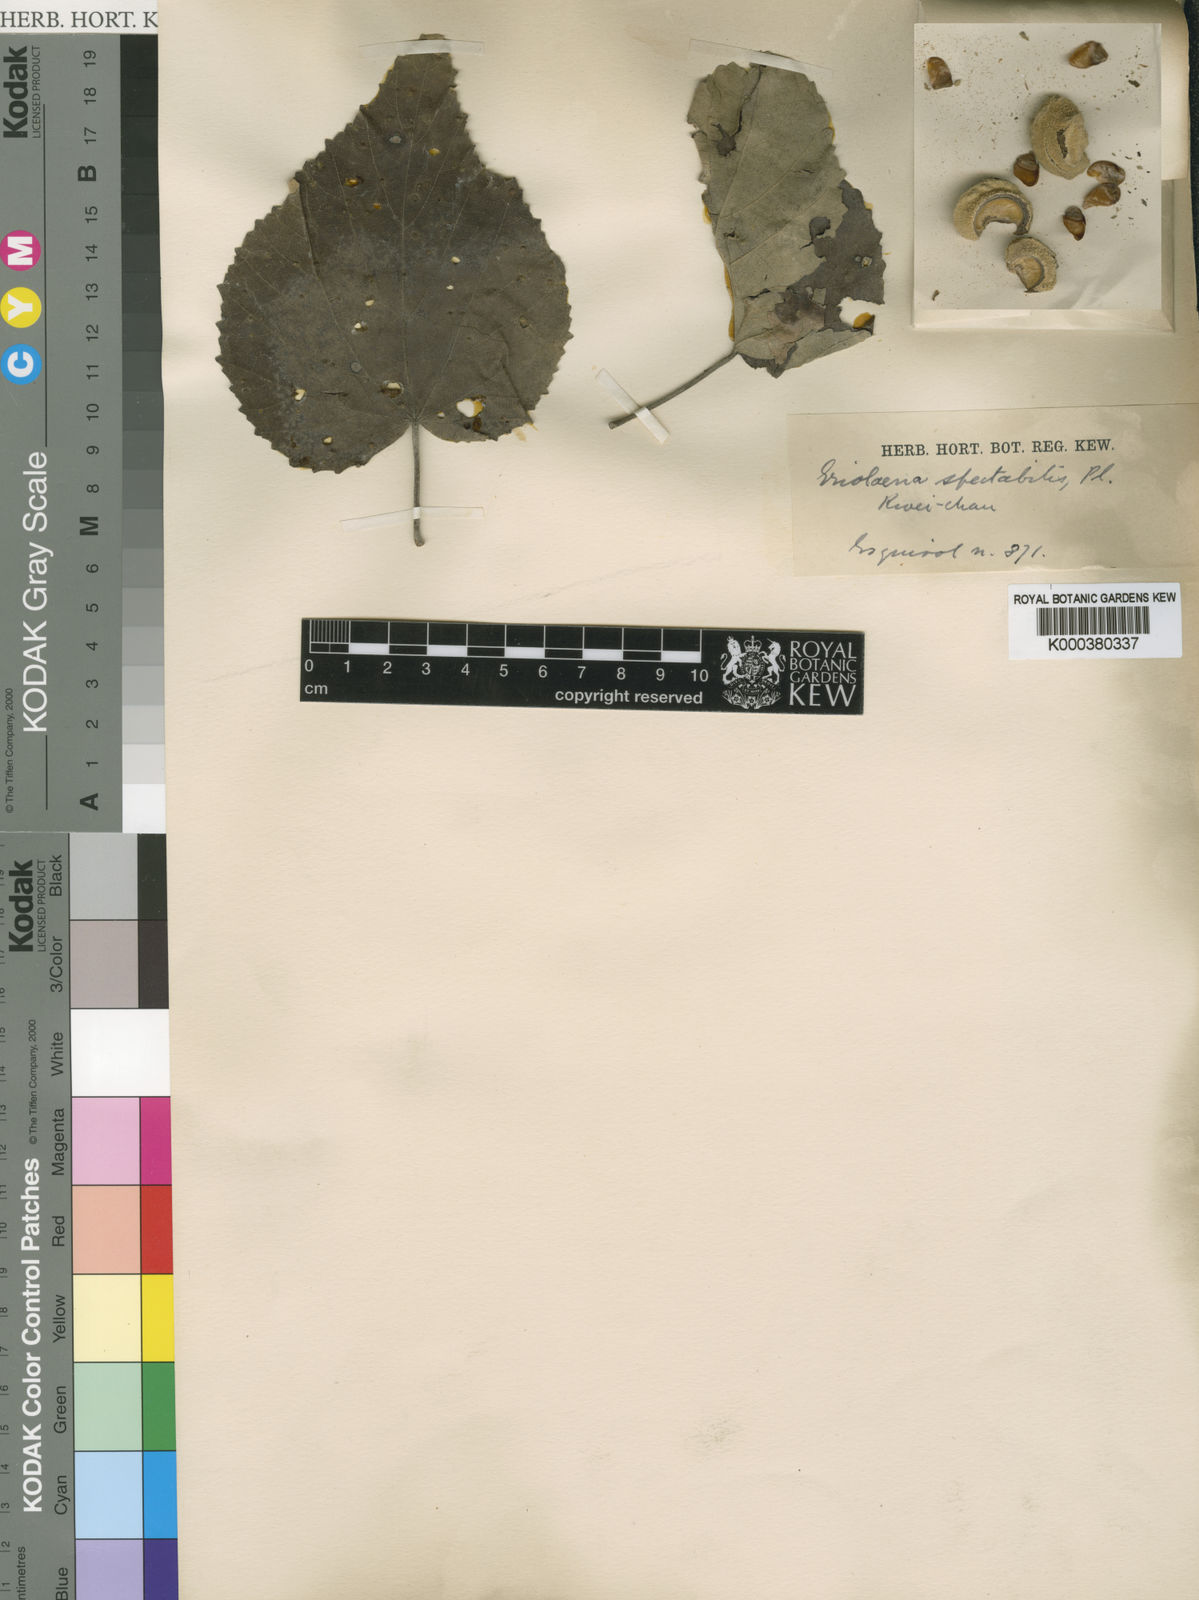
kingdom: Plantae
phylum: Tracheophyta
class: Magnoliopsida
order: Malvales
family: Malvaceae
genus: Eriolaena
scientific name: Eriolaena
